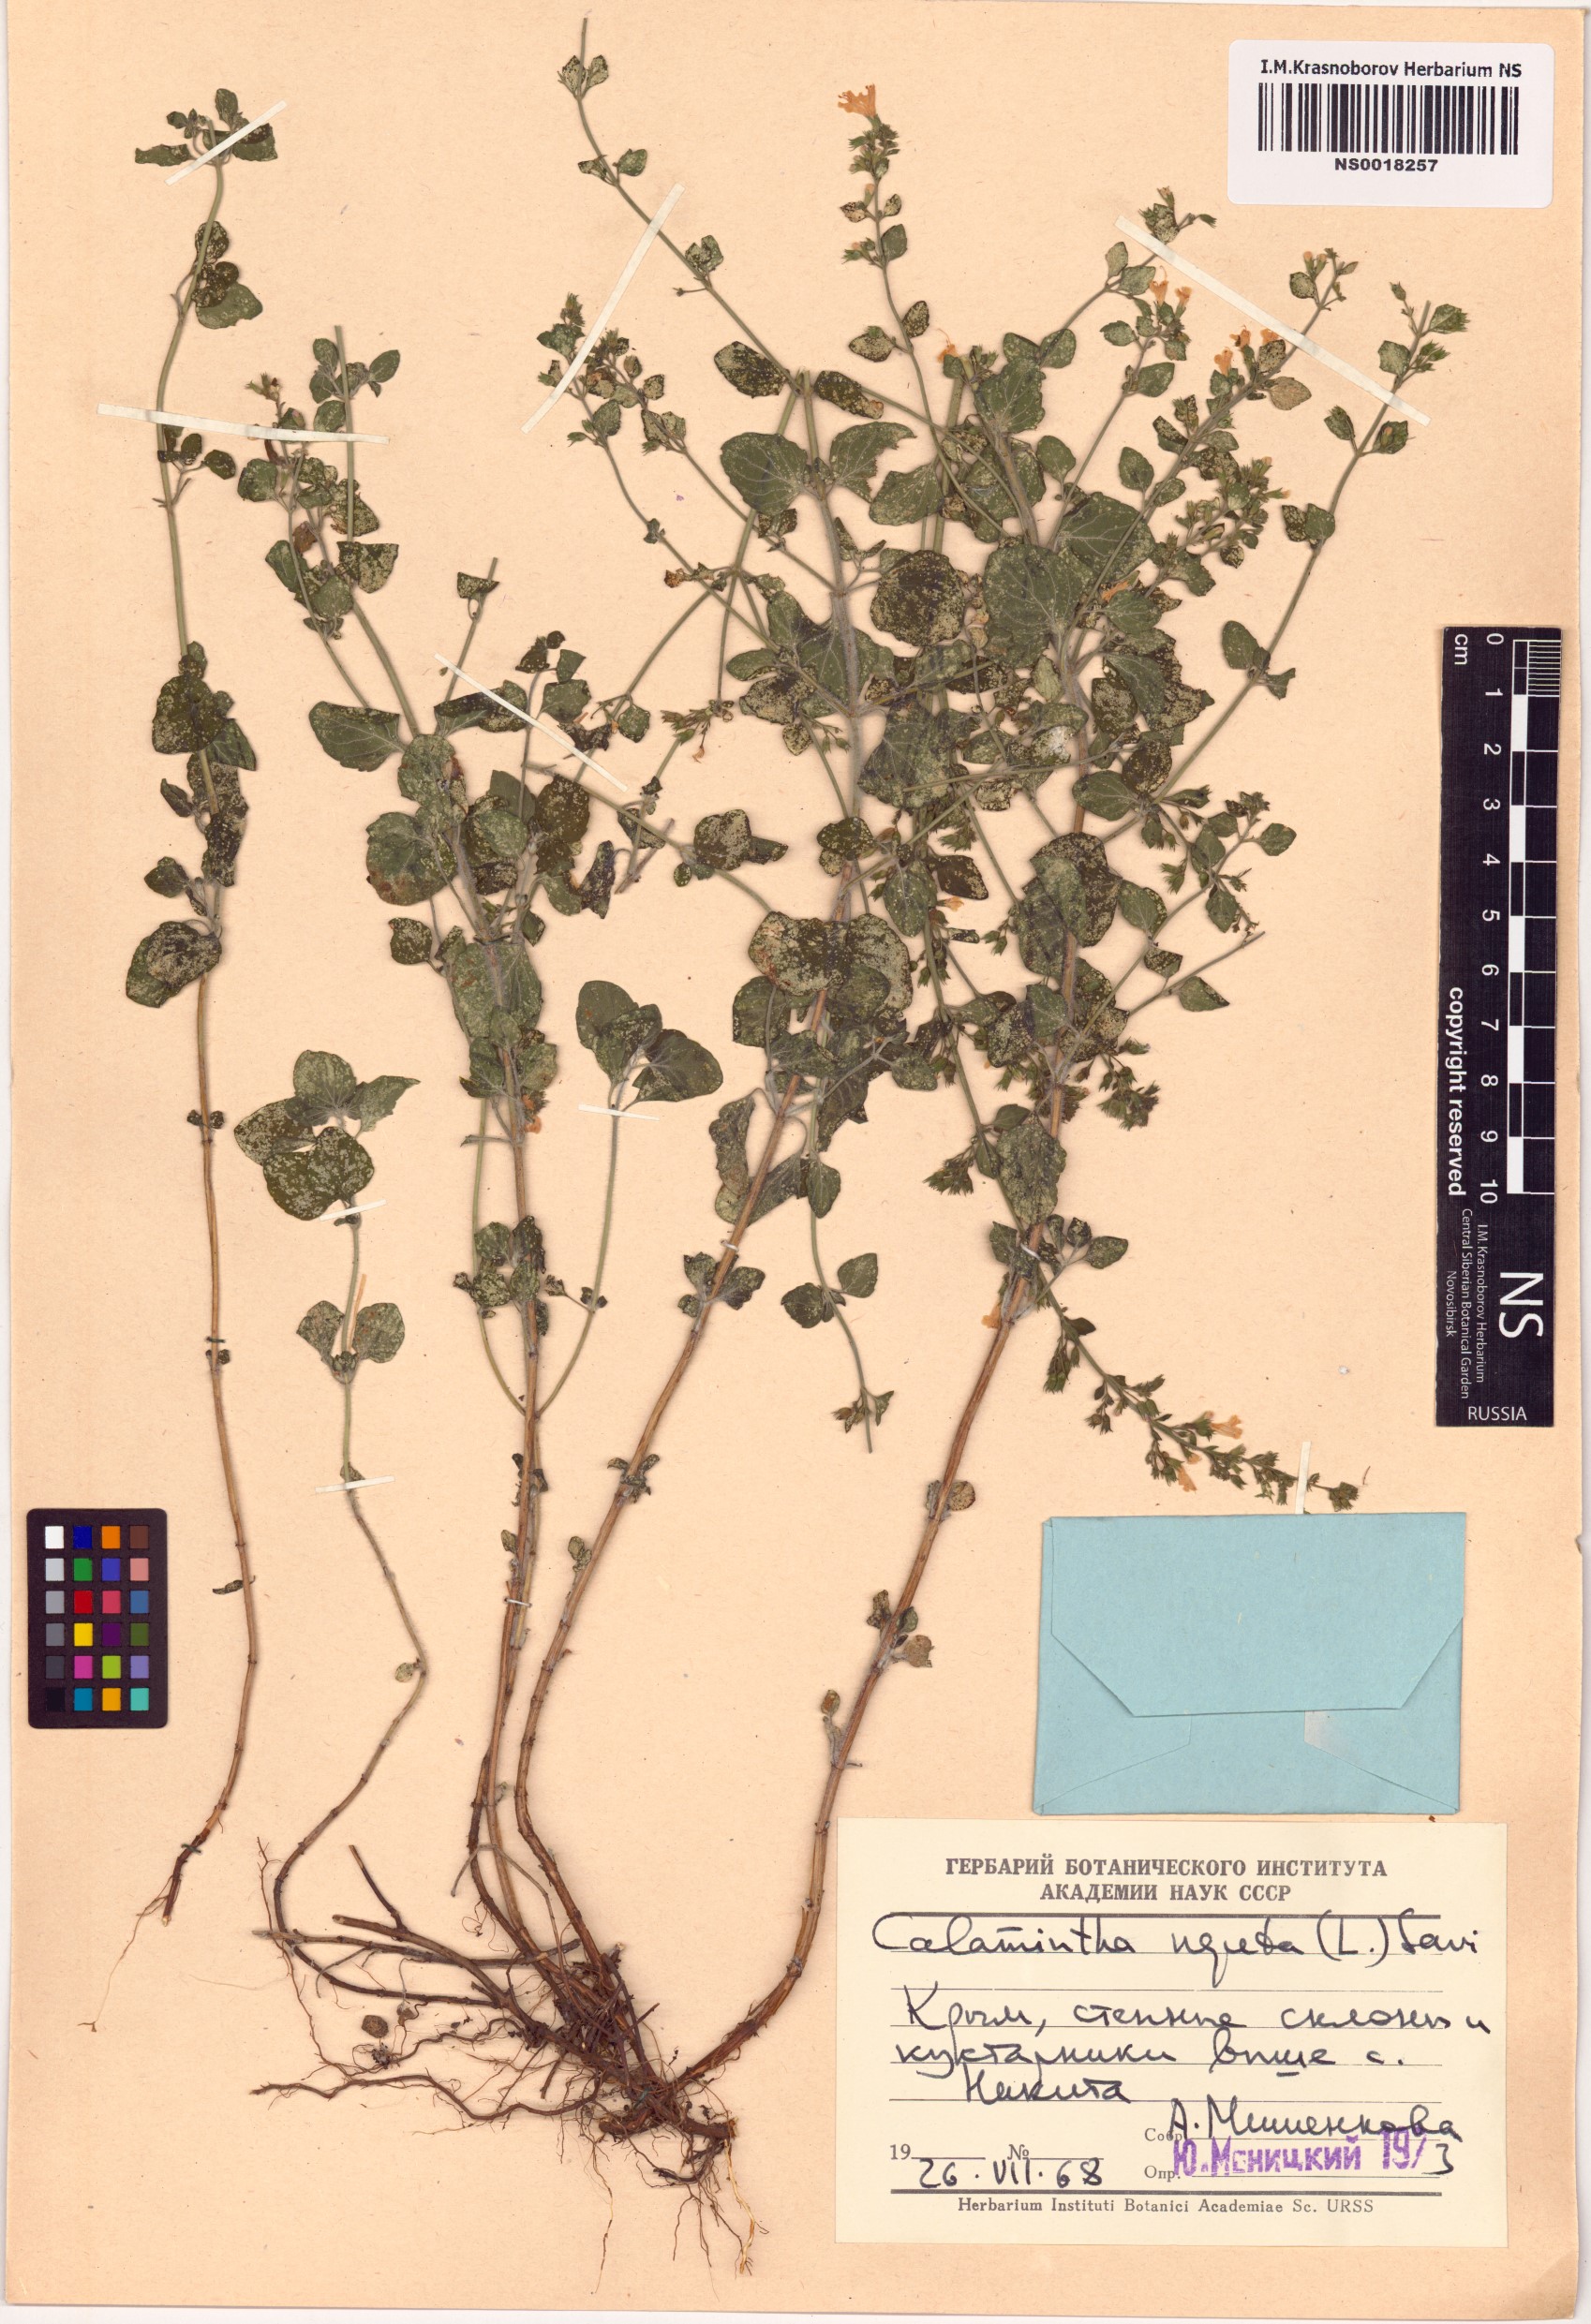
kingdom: Plantae
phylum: Tracheophyta
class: Magnoliopsida
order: Lamiales
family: Lamiaceae
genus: Clinopodium
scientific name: Clinopodium nepeta
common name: Lesser calamint
